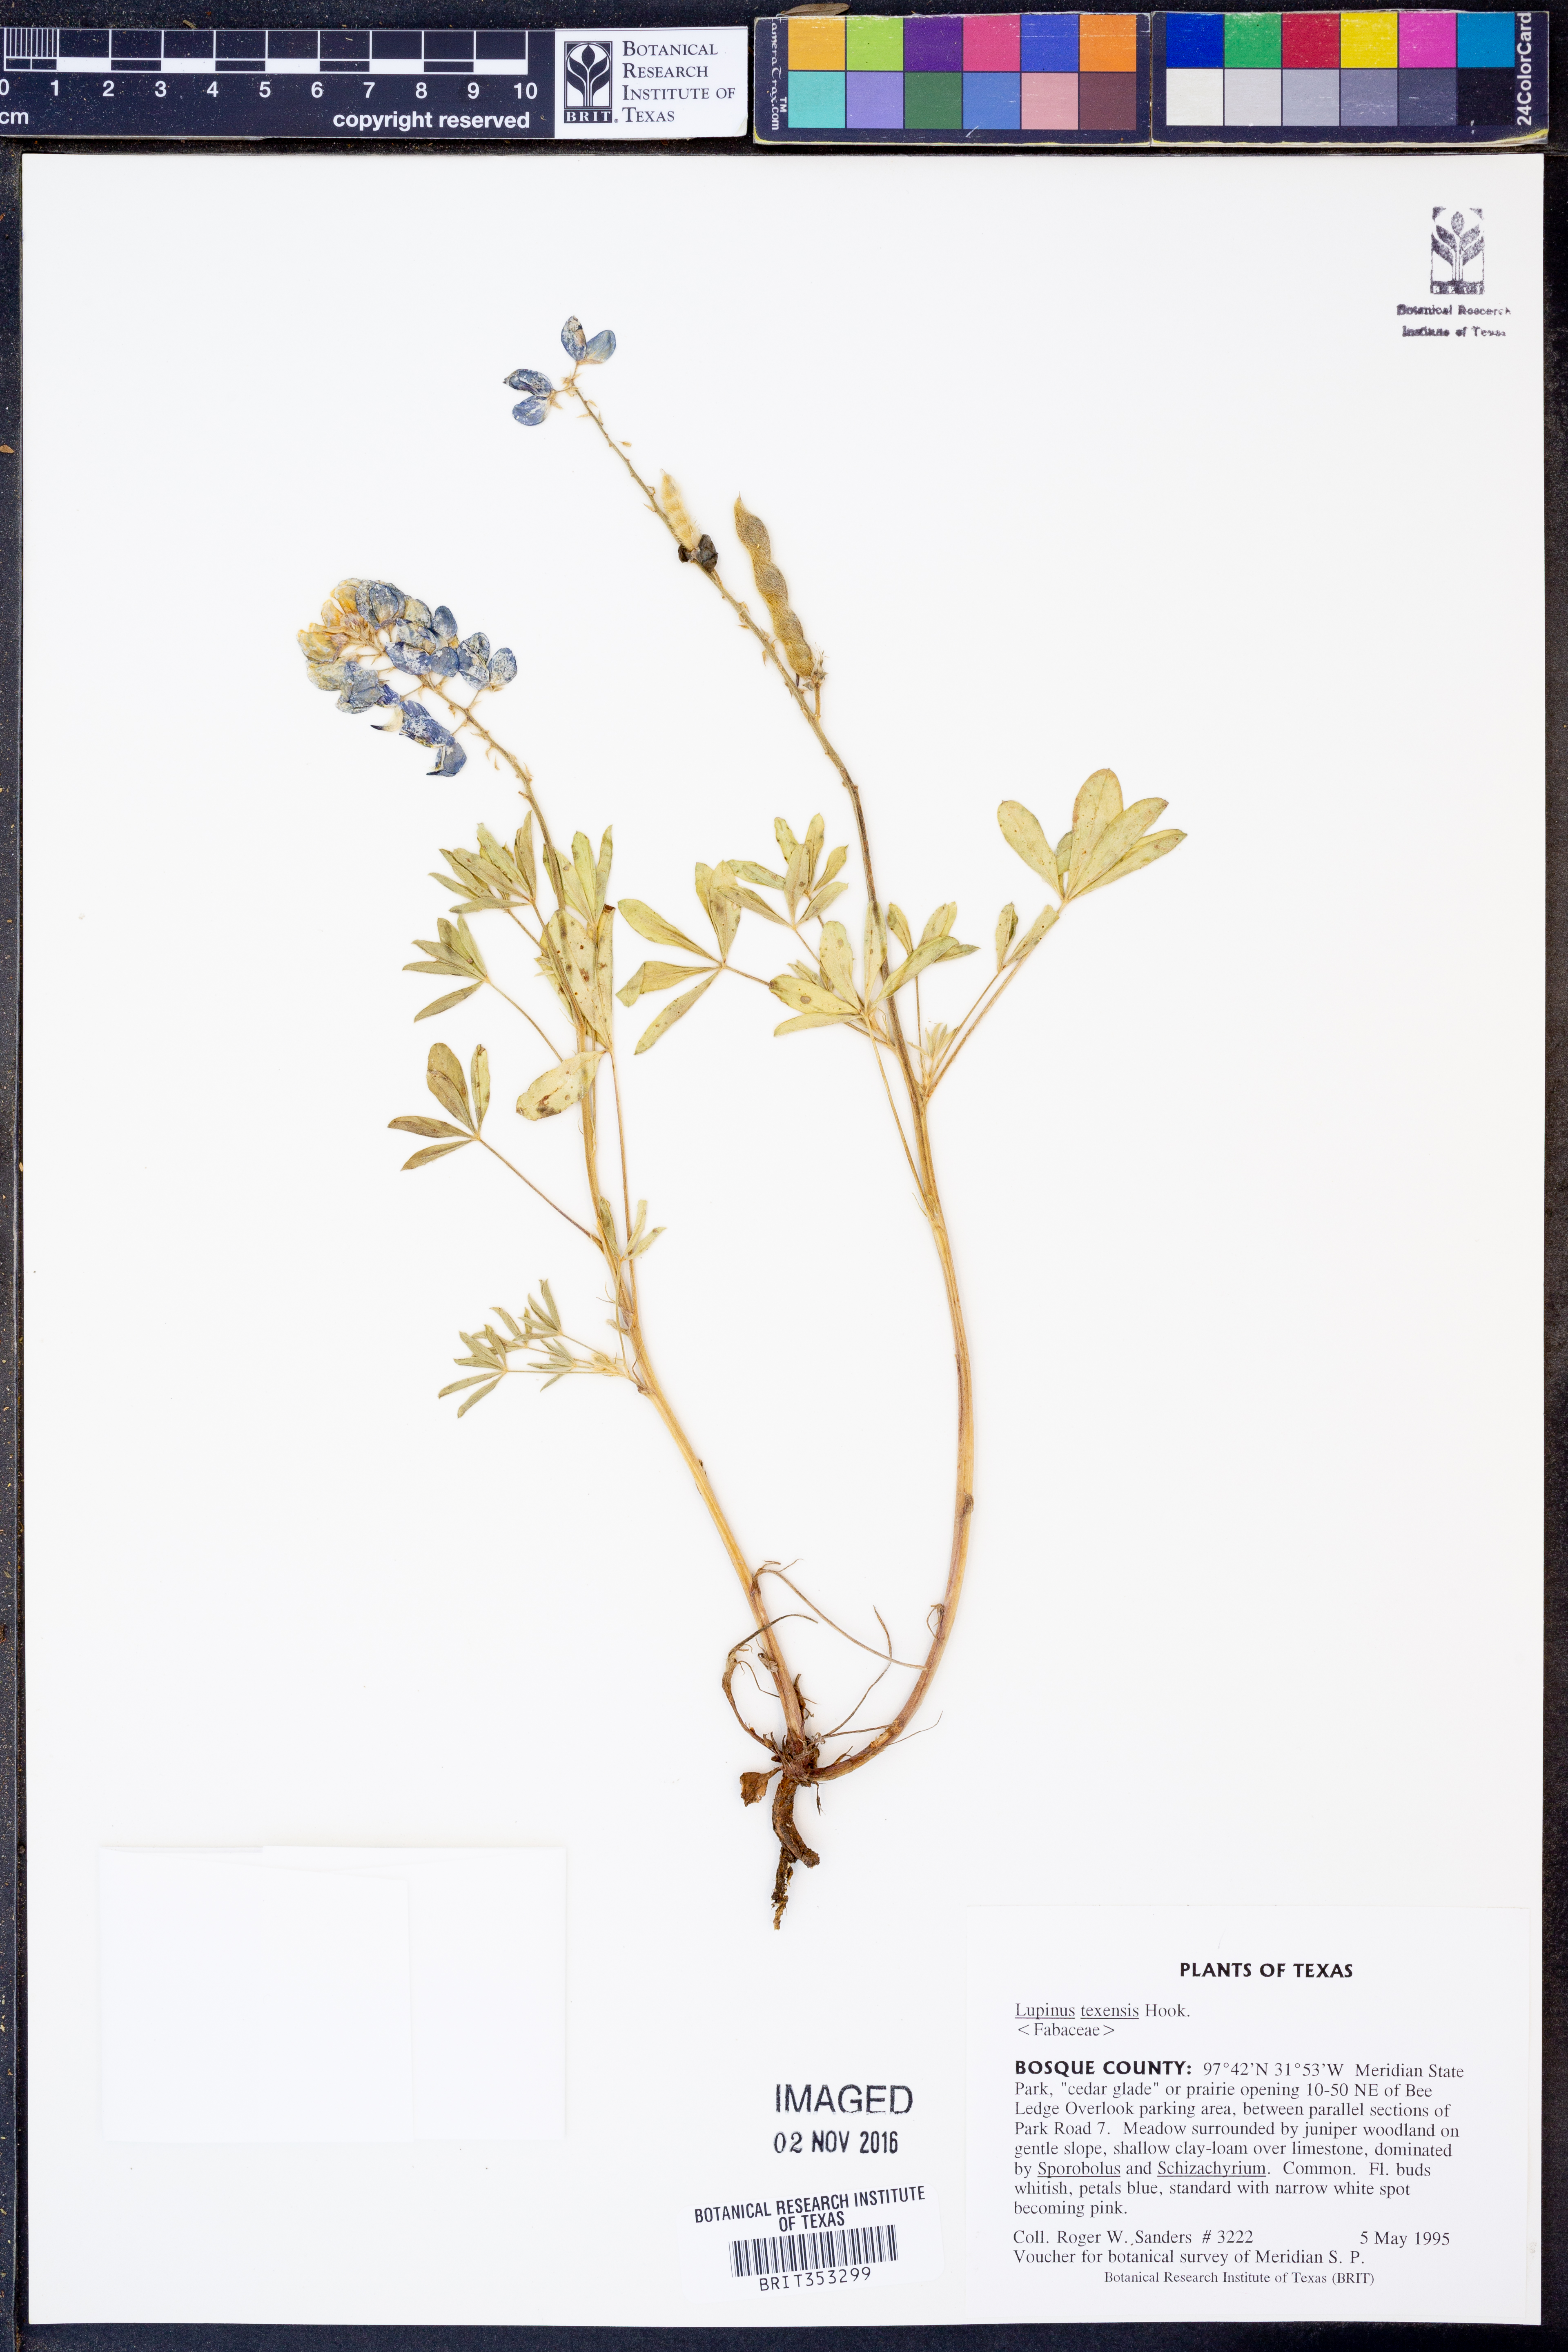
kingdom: Plantae
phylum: Tracheophyta
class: Magnoliopsida
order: Fabales
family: Fabaceae
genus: Lupinus
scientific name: Lupinus texensis
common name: Texas bluebonnet
